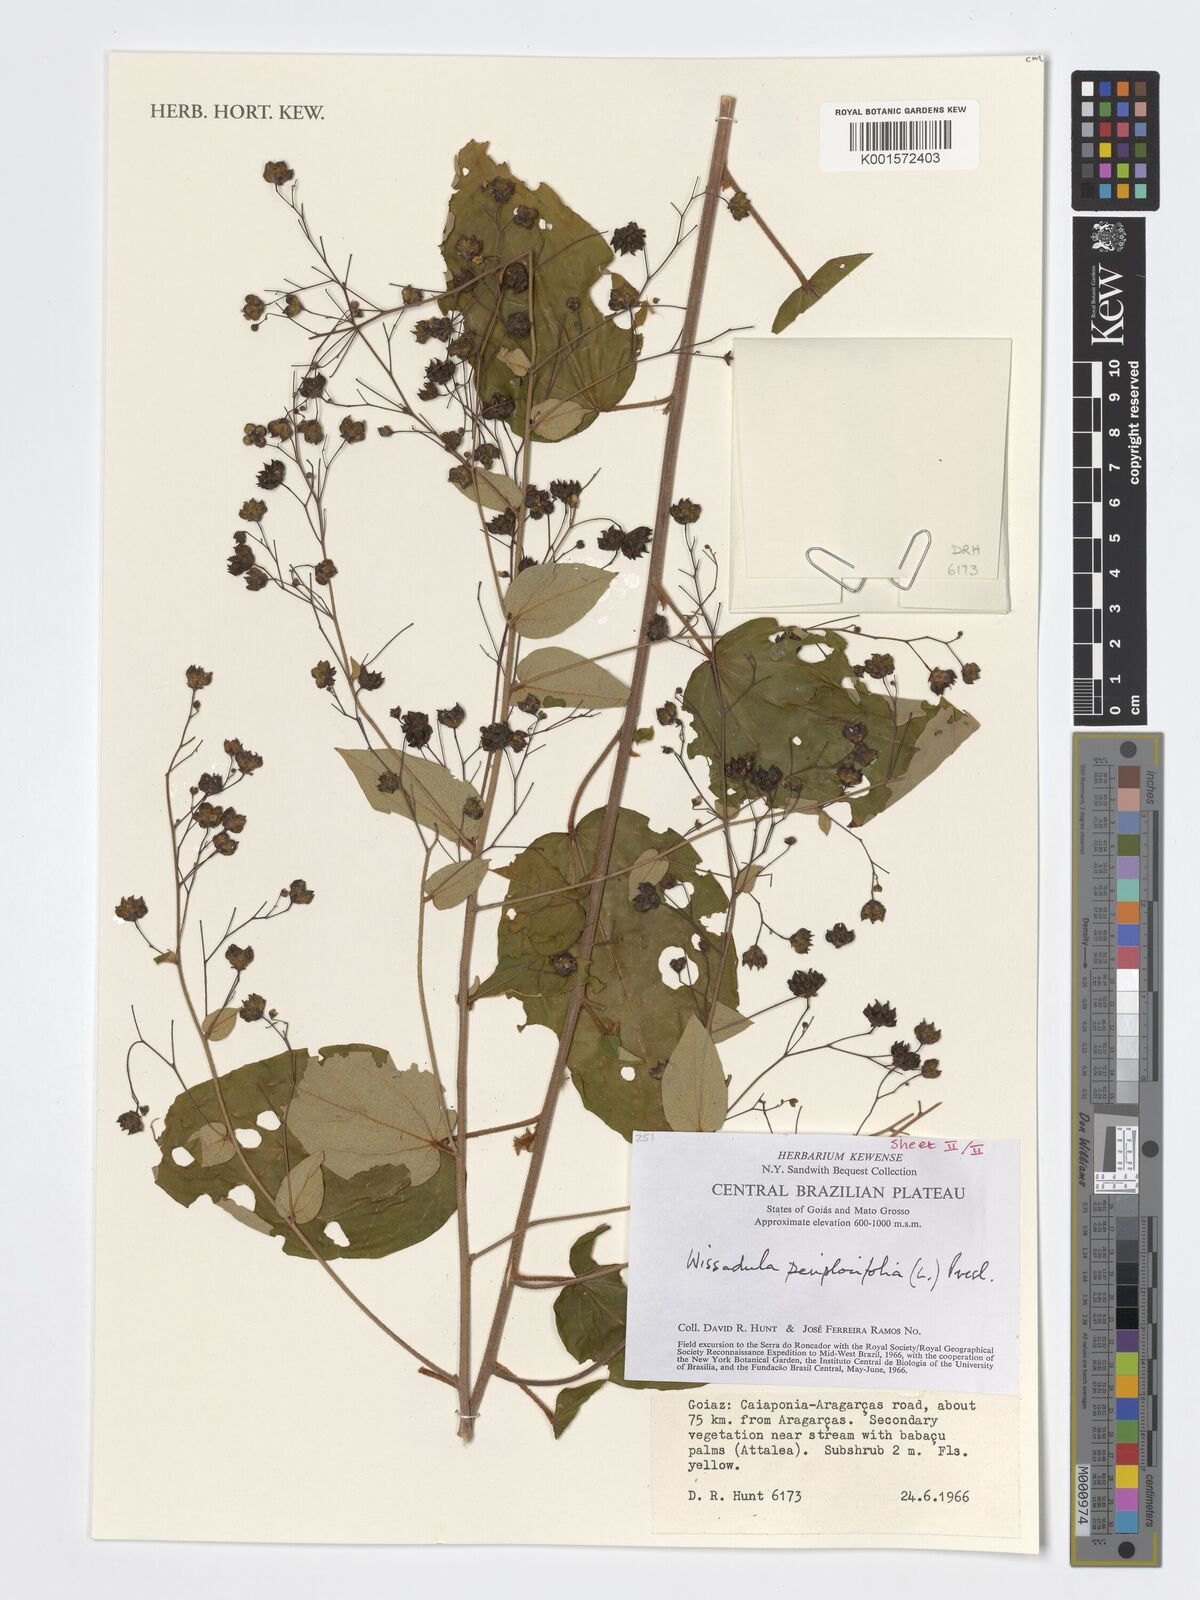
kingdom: Plantae
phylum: Tracheophyta
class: Magnoliopsida
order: Malvales
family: Malvaceae
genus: Wissadula
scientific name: Wissadula periplocifolia
